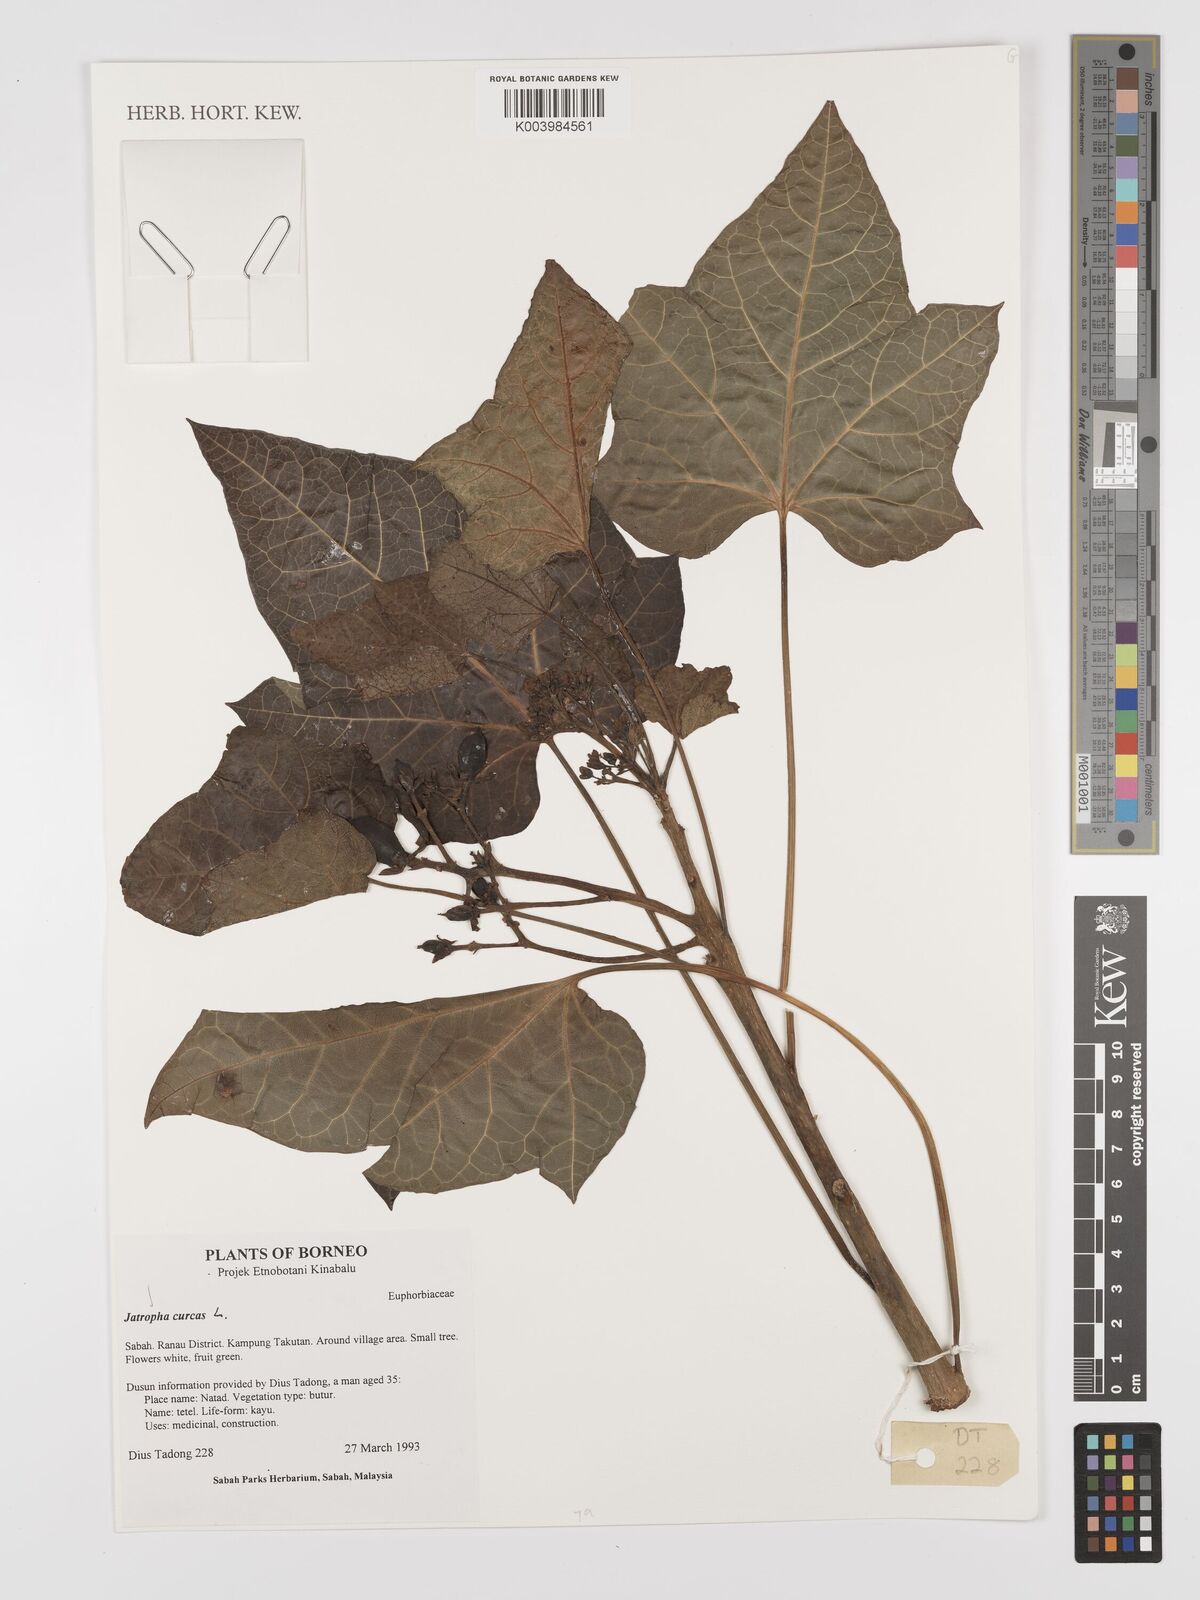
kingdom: Plantae
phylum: Tracheophyta
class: Magnoliopsida
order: Malpighiales
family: Euphorbiaceae
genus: Jatropha
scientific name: Jatropha curcas
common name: Barbados nut
